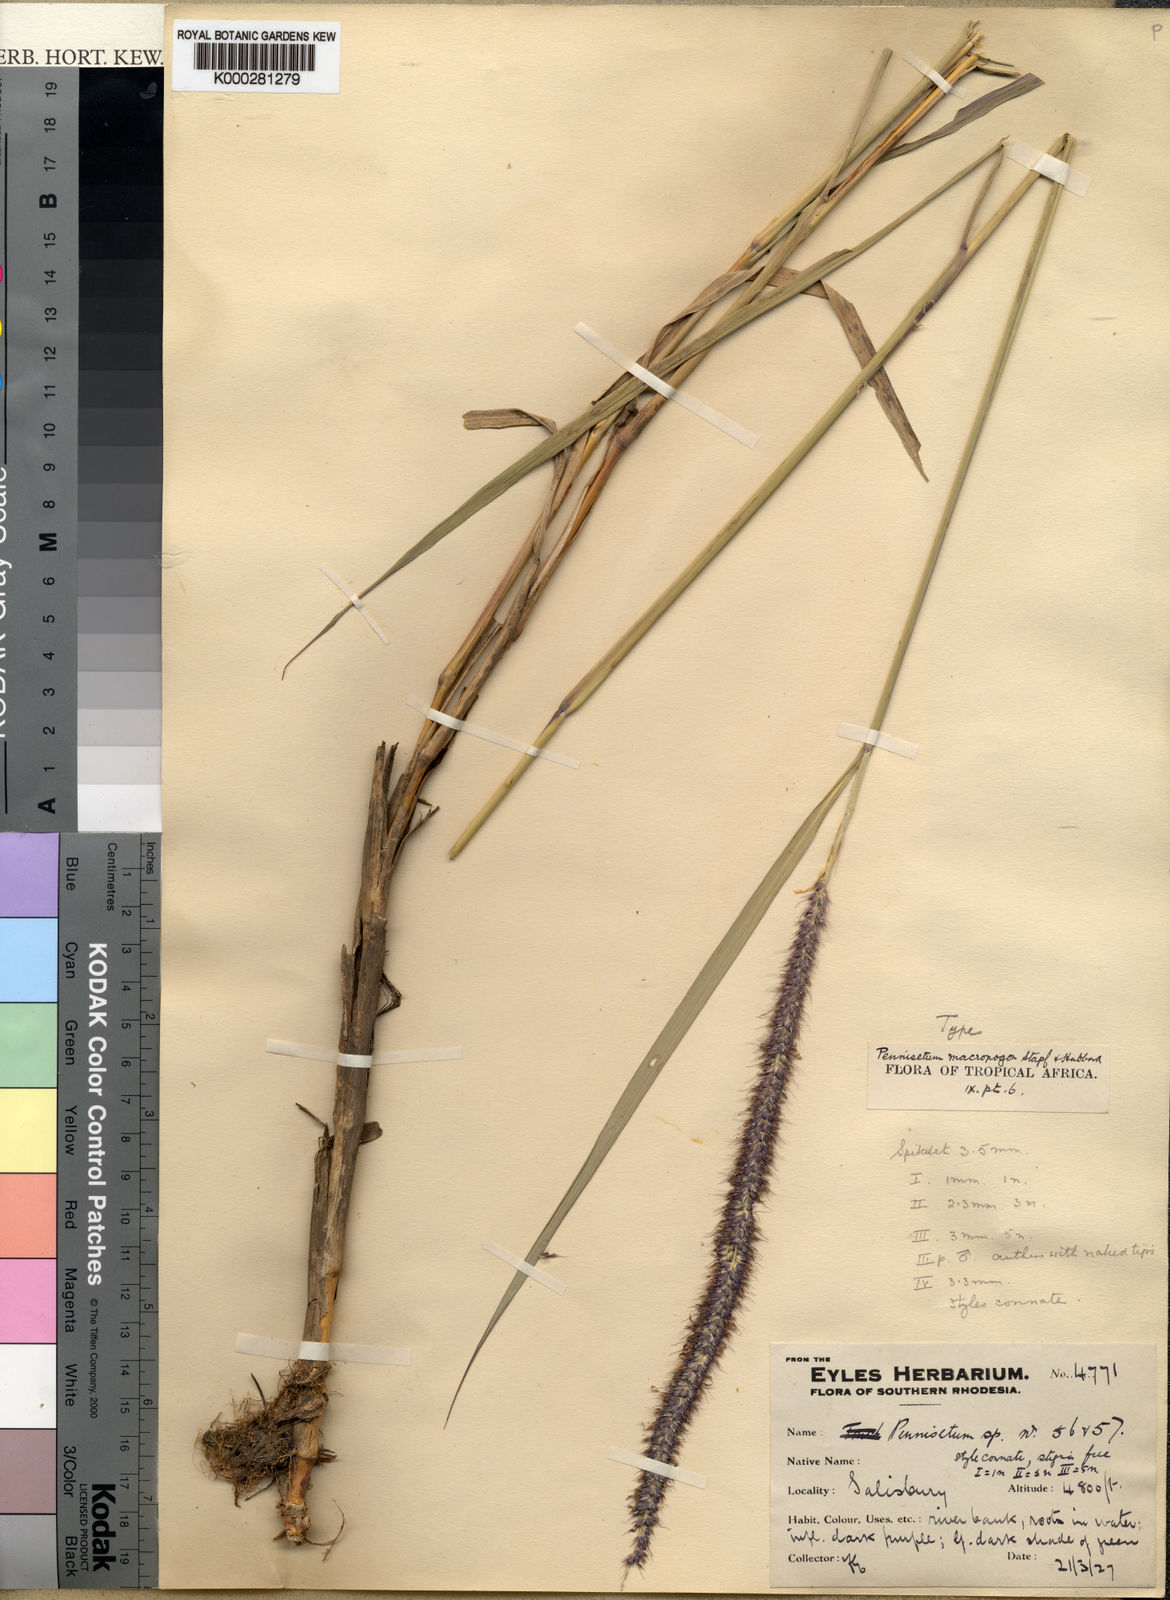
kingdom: Plantae
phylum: Tracheophyta
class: Liliopsida
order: Poales
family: Poaceae
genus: Cenchrus
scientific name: Cenchrus caudatus
